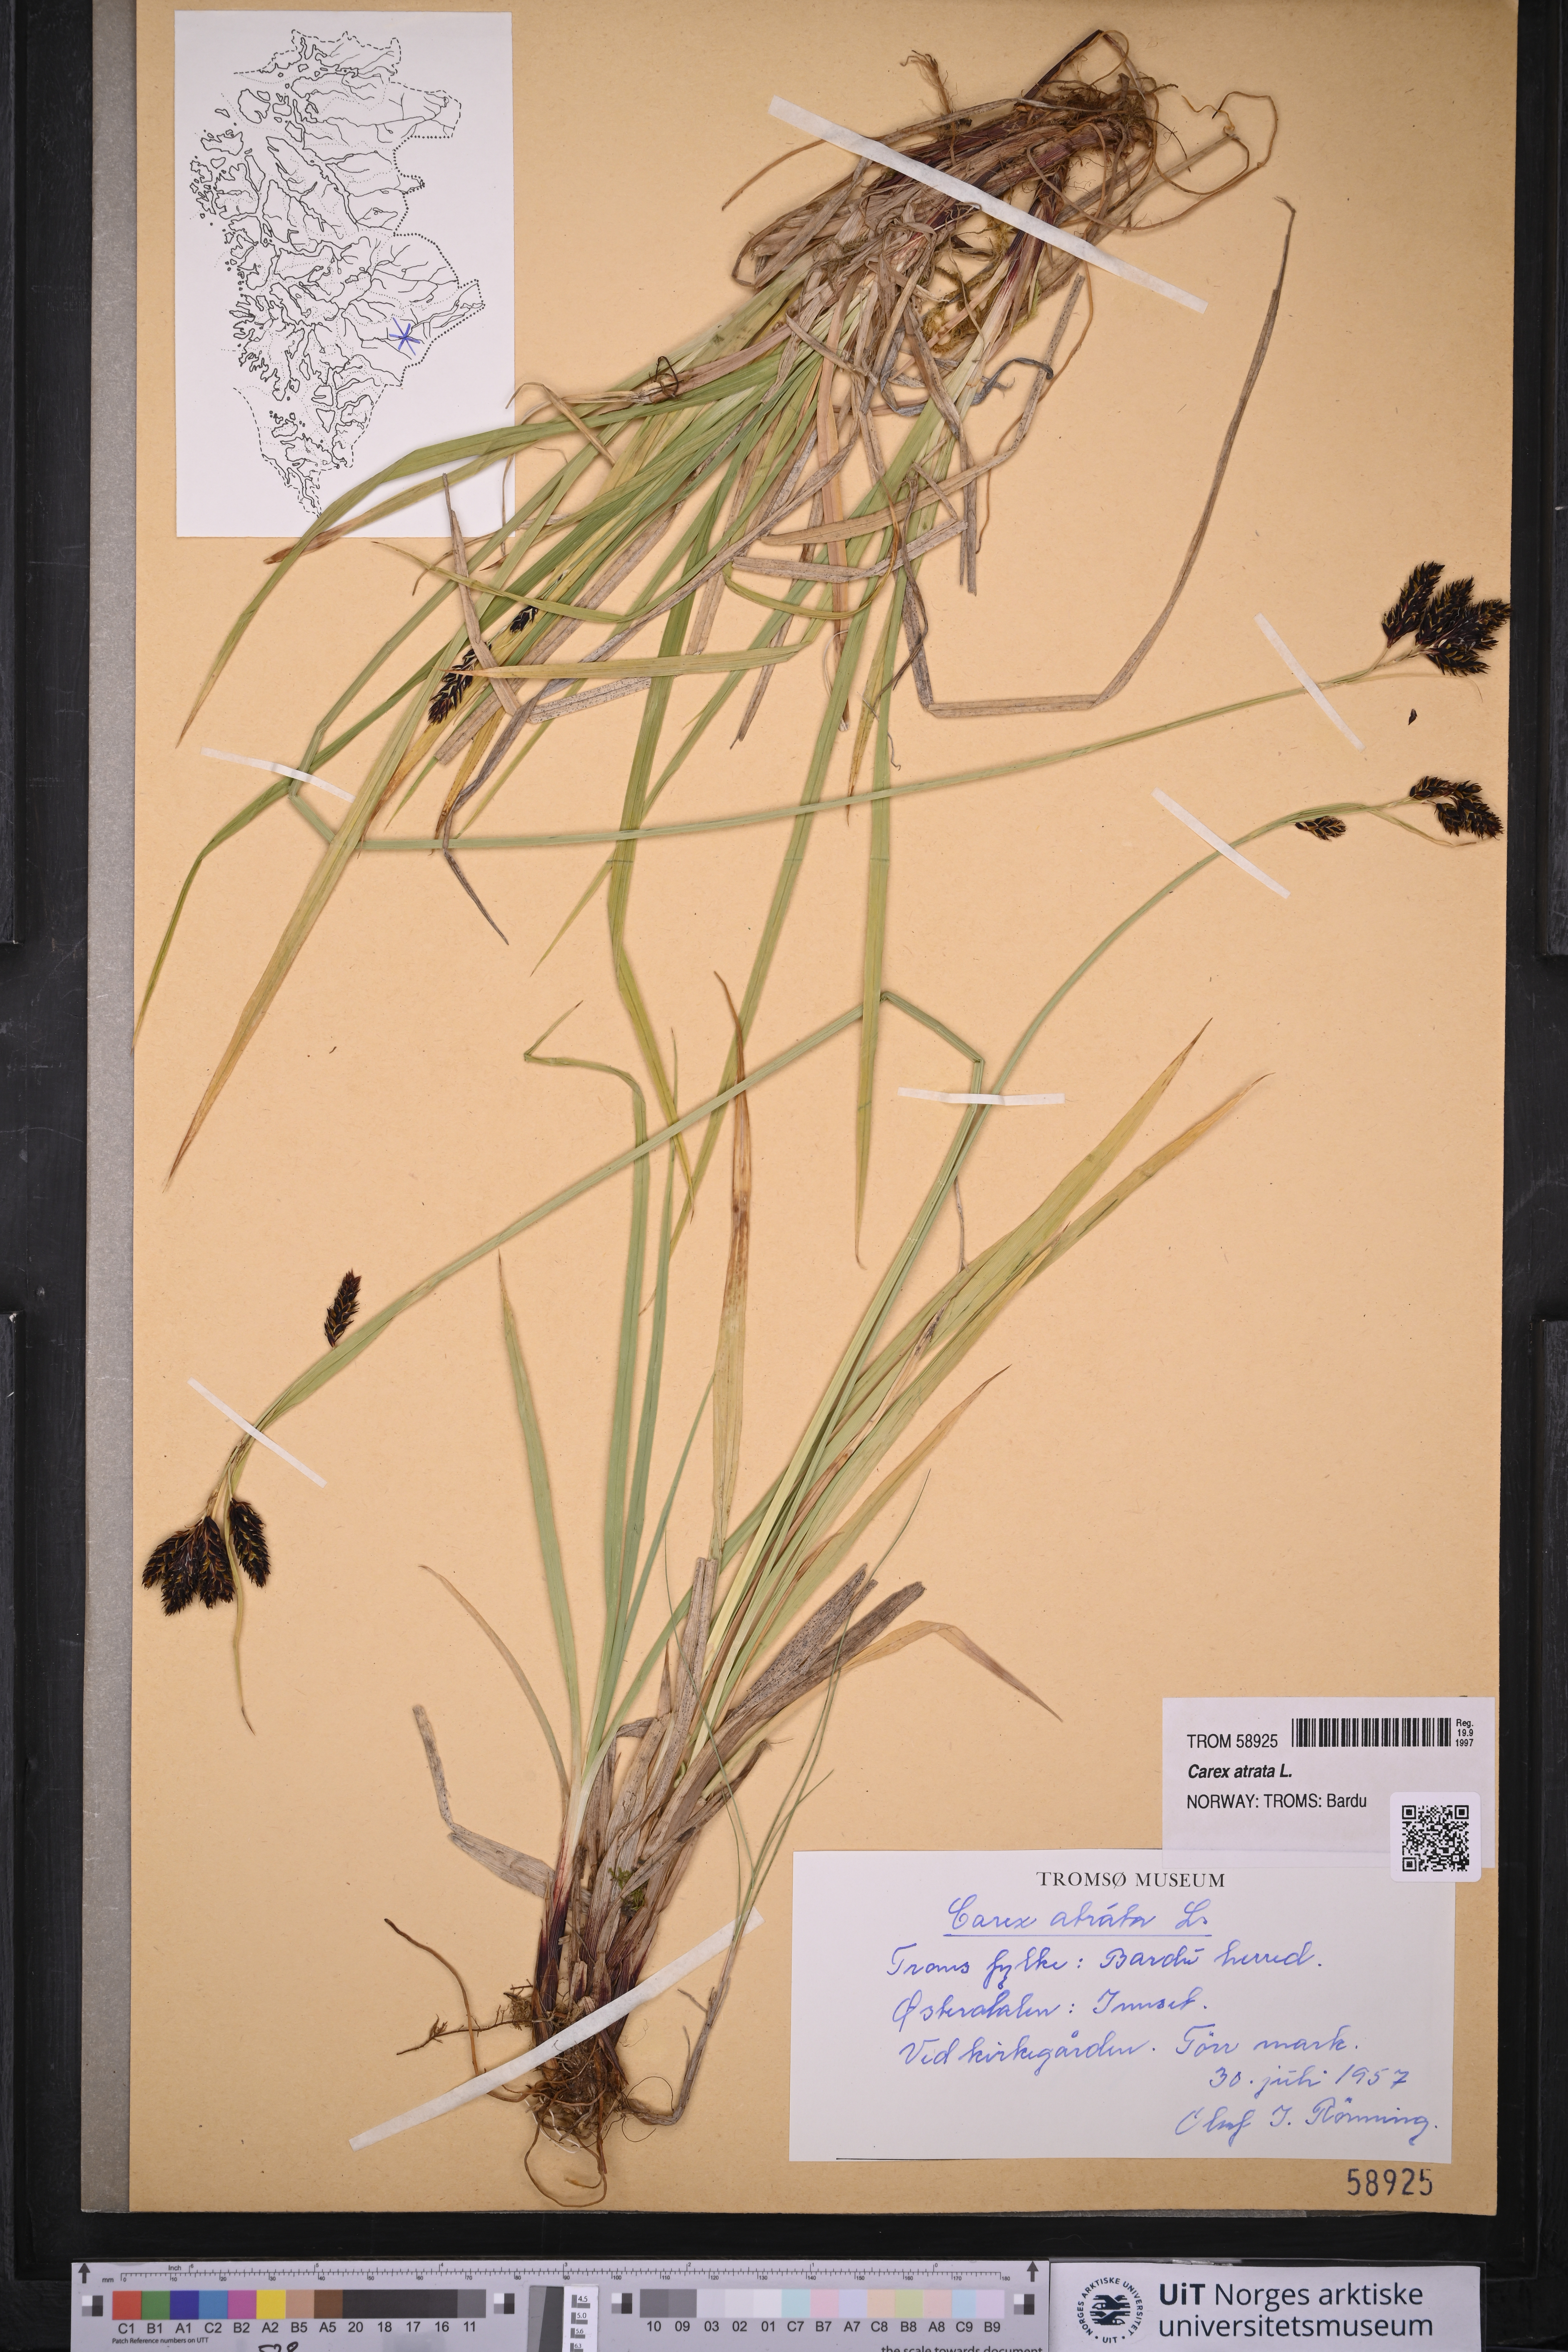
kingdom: Plantae
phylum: Tracheophyta
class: Liliopsida
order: Poales
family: Cyperaceae
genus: Carex
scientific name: Carex atrata
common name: Black alpine sedge
